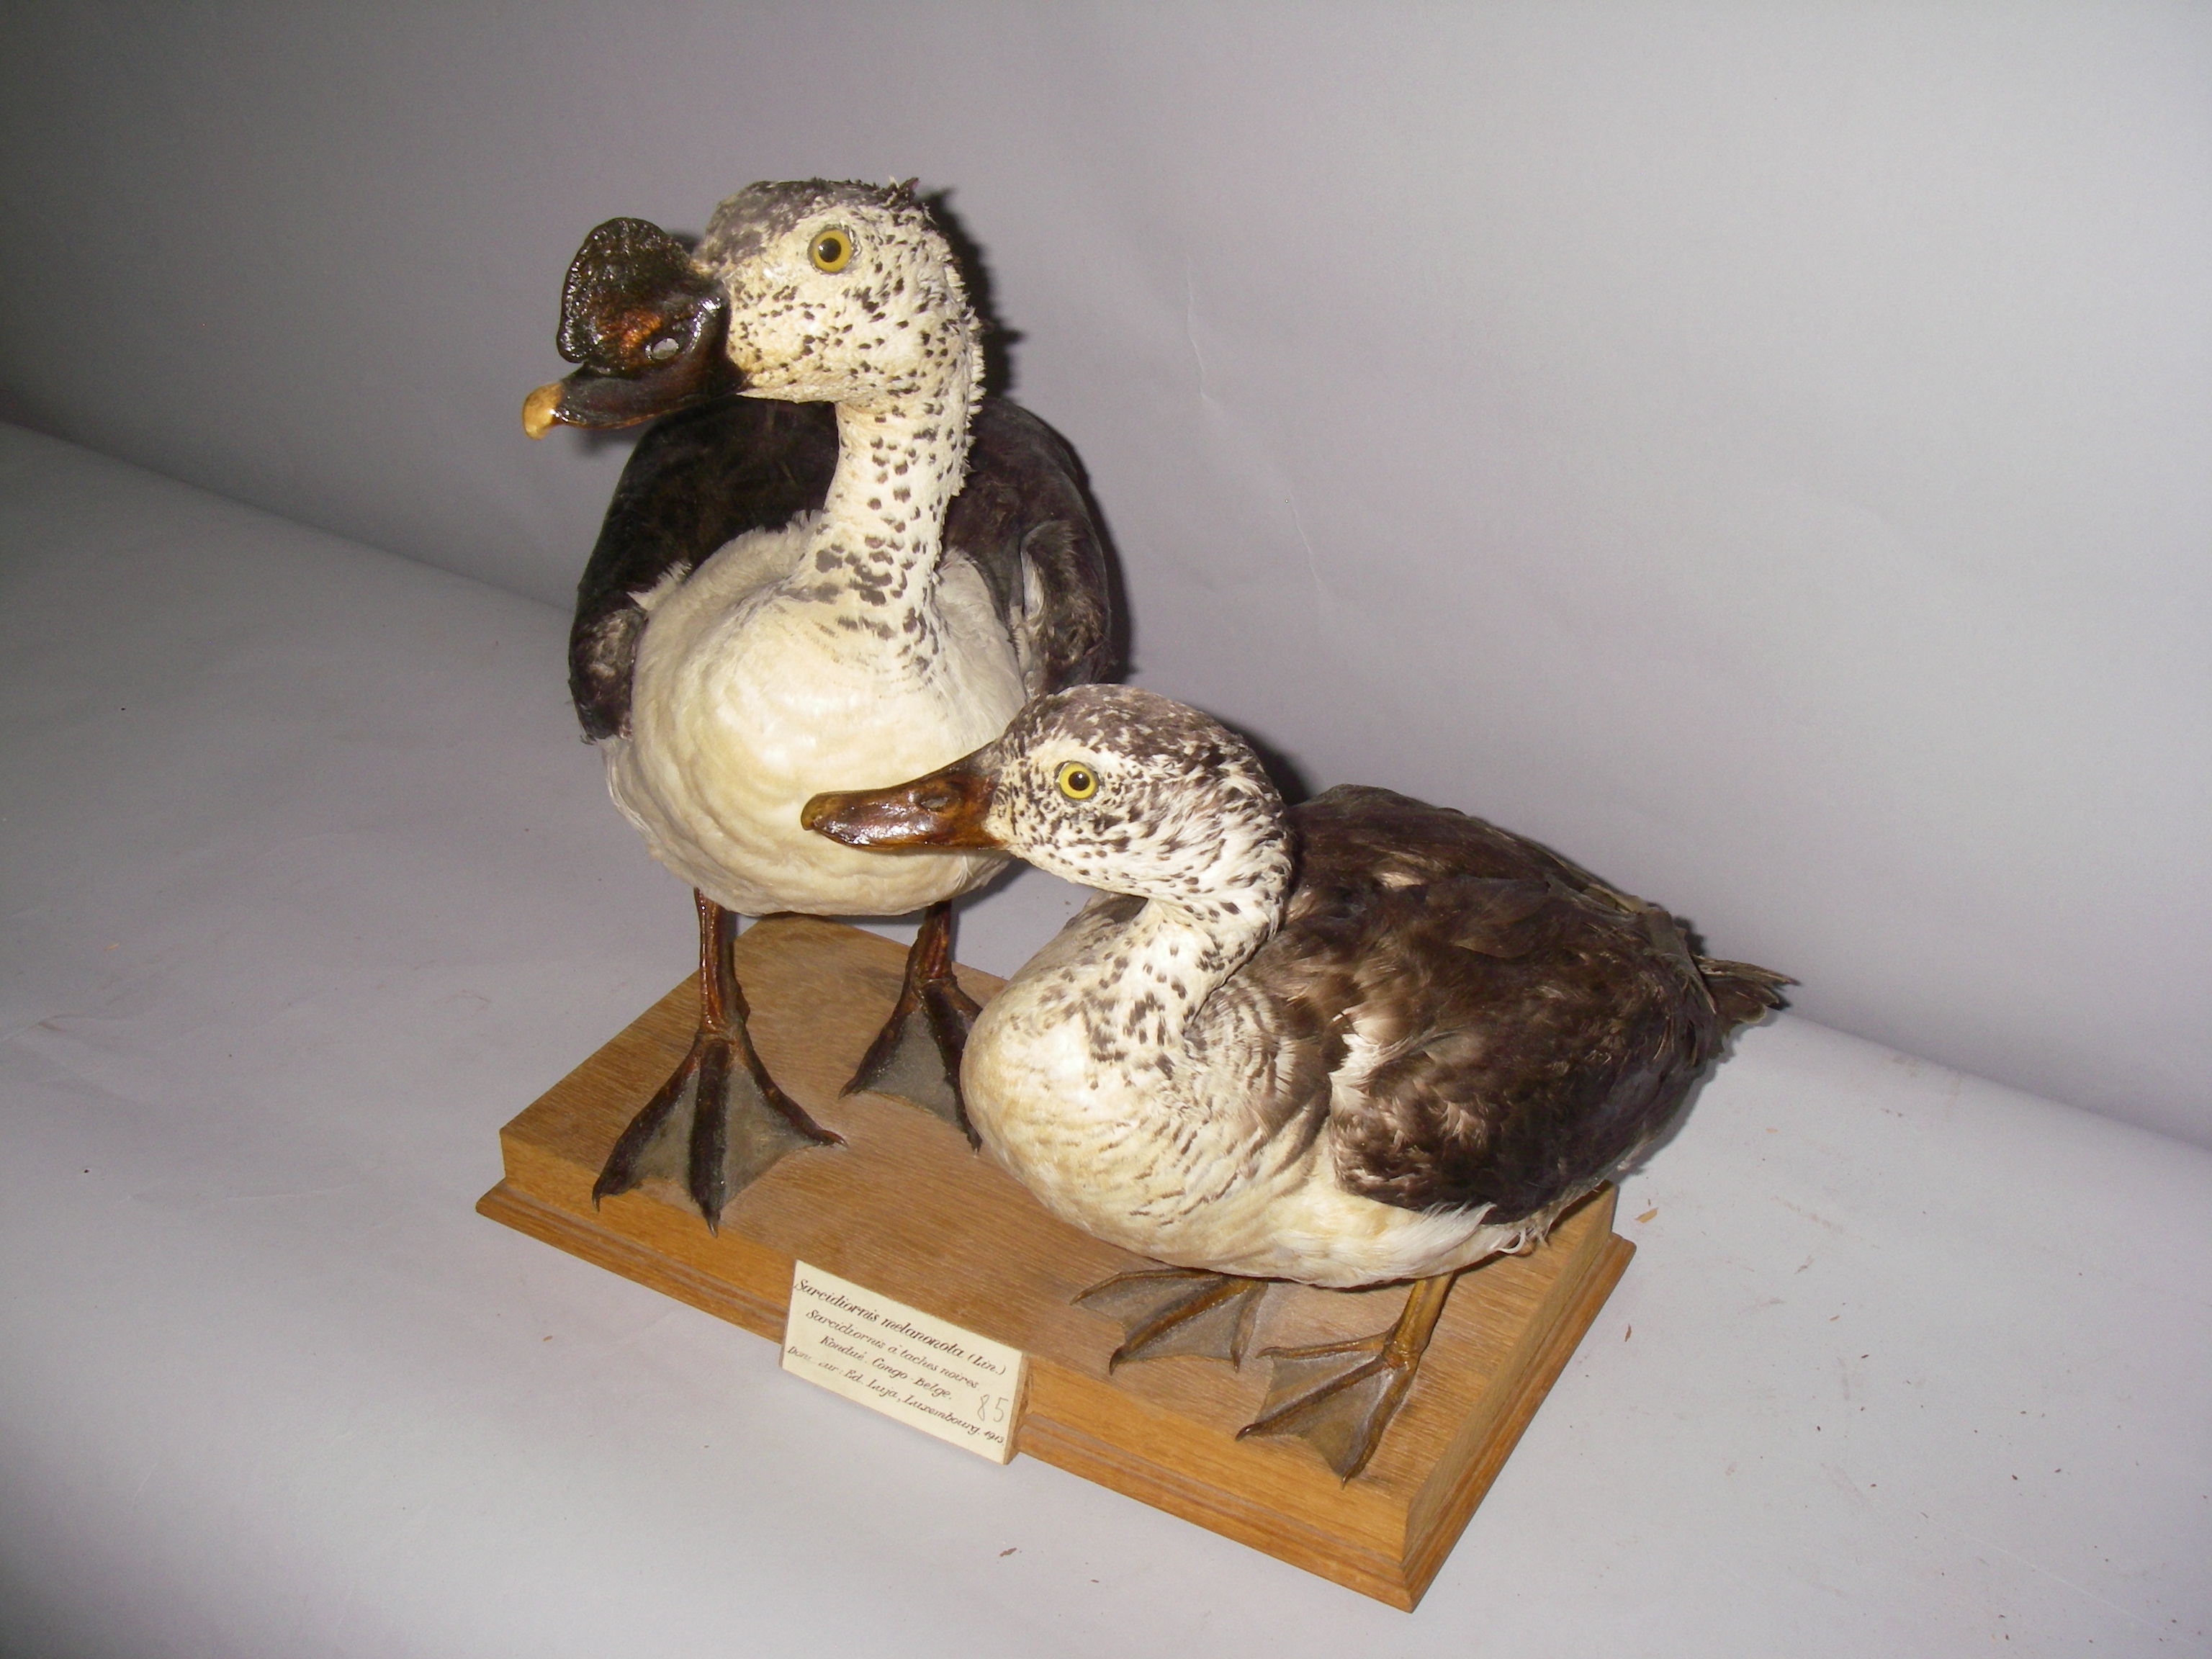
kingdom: Animalia
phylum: Chordata
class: Aves
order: Anseriformes
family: Anatidae
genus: Sarkidiornis
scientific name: Sarkidiornis melanotos
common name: Comb duck
